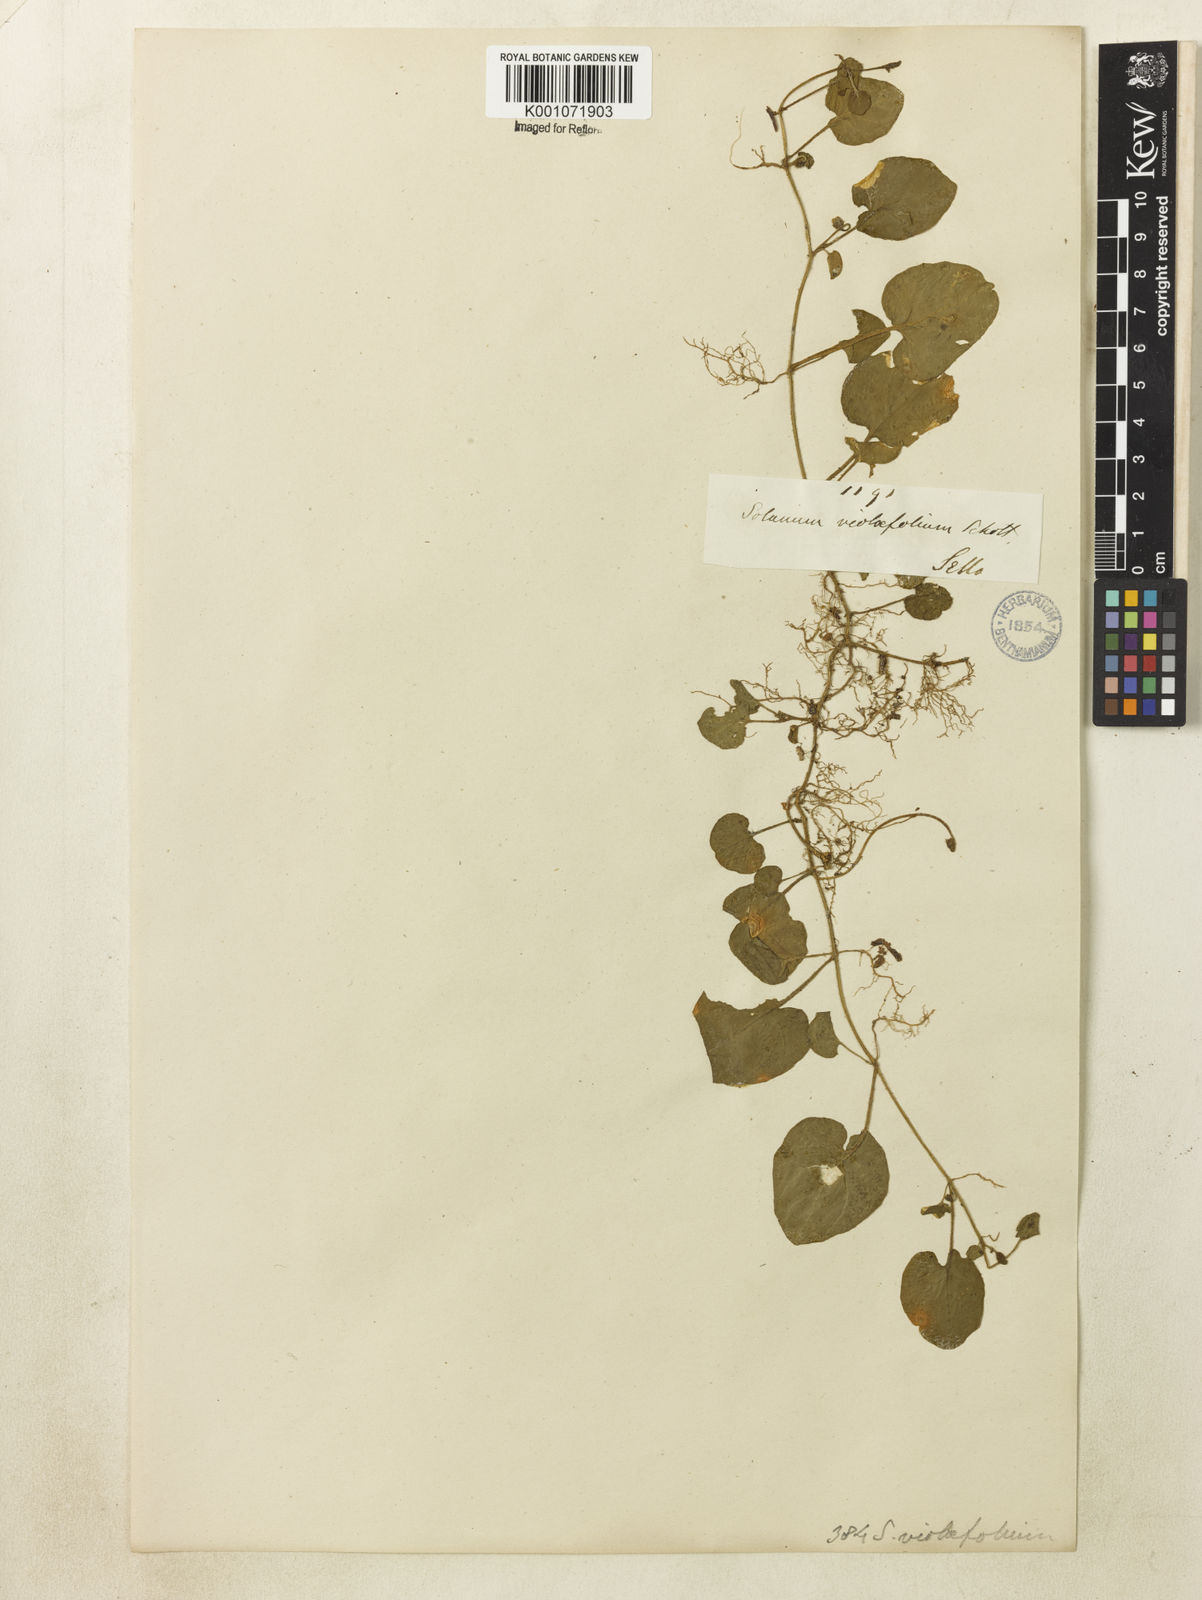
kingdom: Plantae
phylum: Tracheophyta
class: Magnoliopsida
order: Solanales
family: Solanaceae
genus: Lycianthes
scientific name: Lycianthes repens
